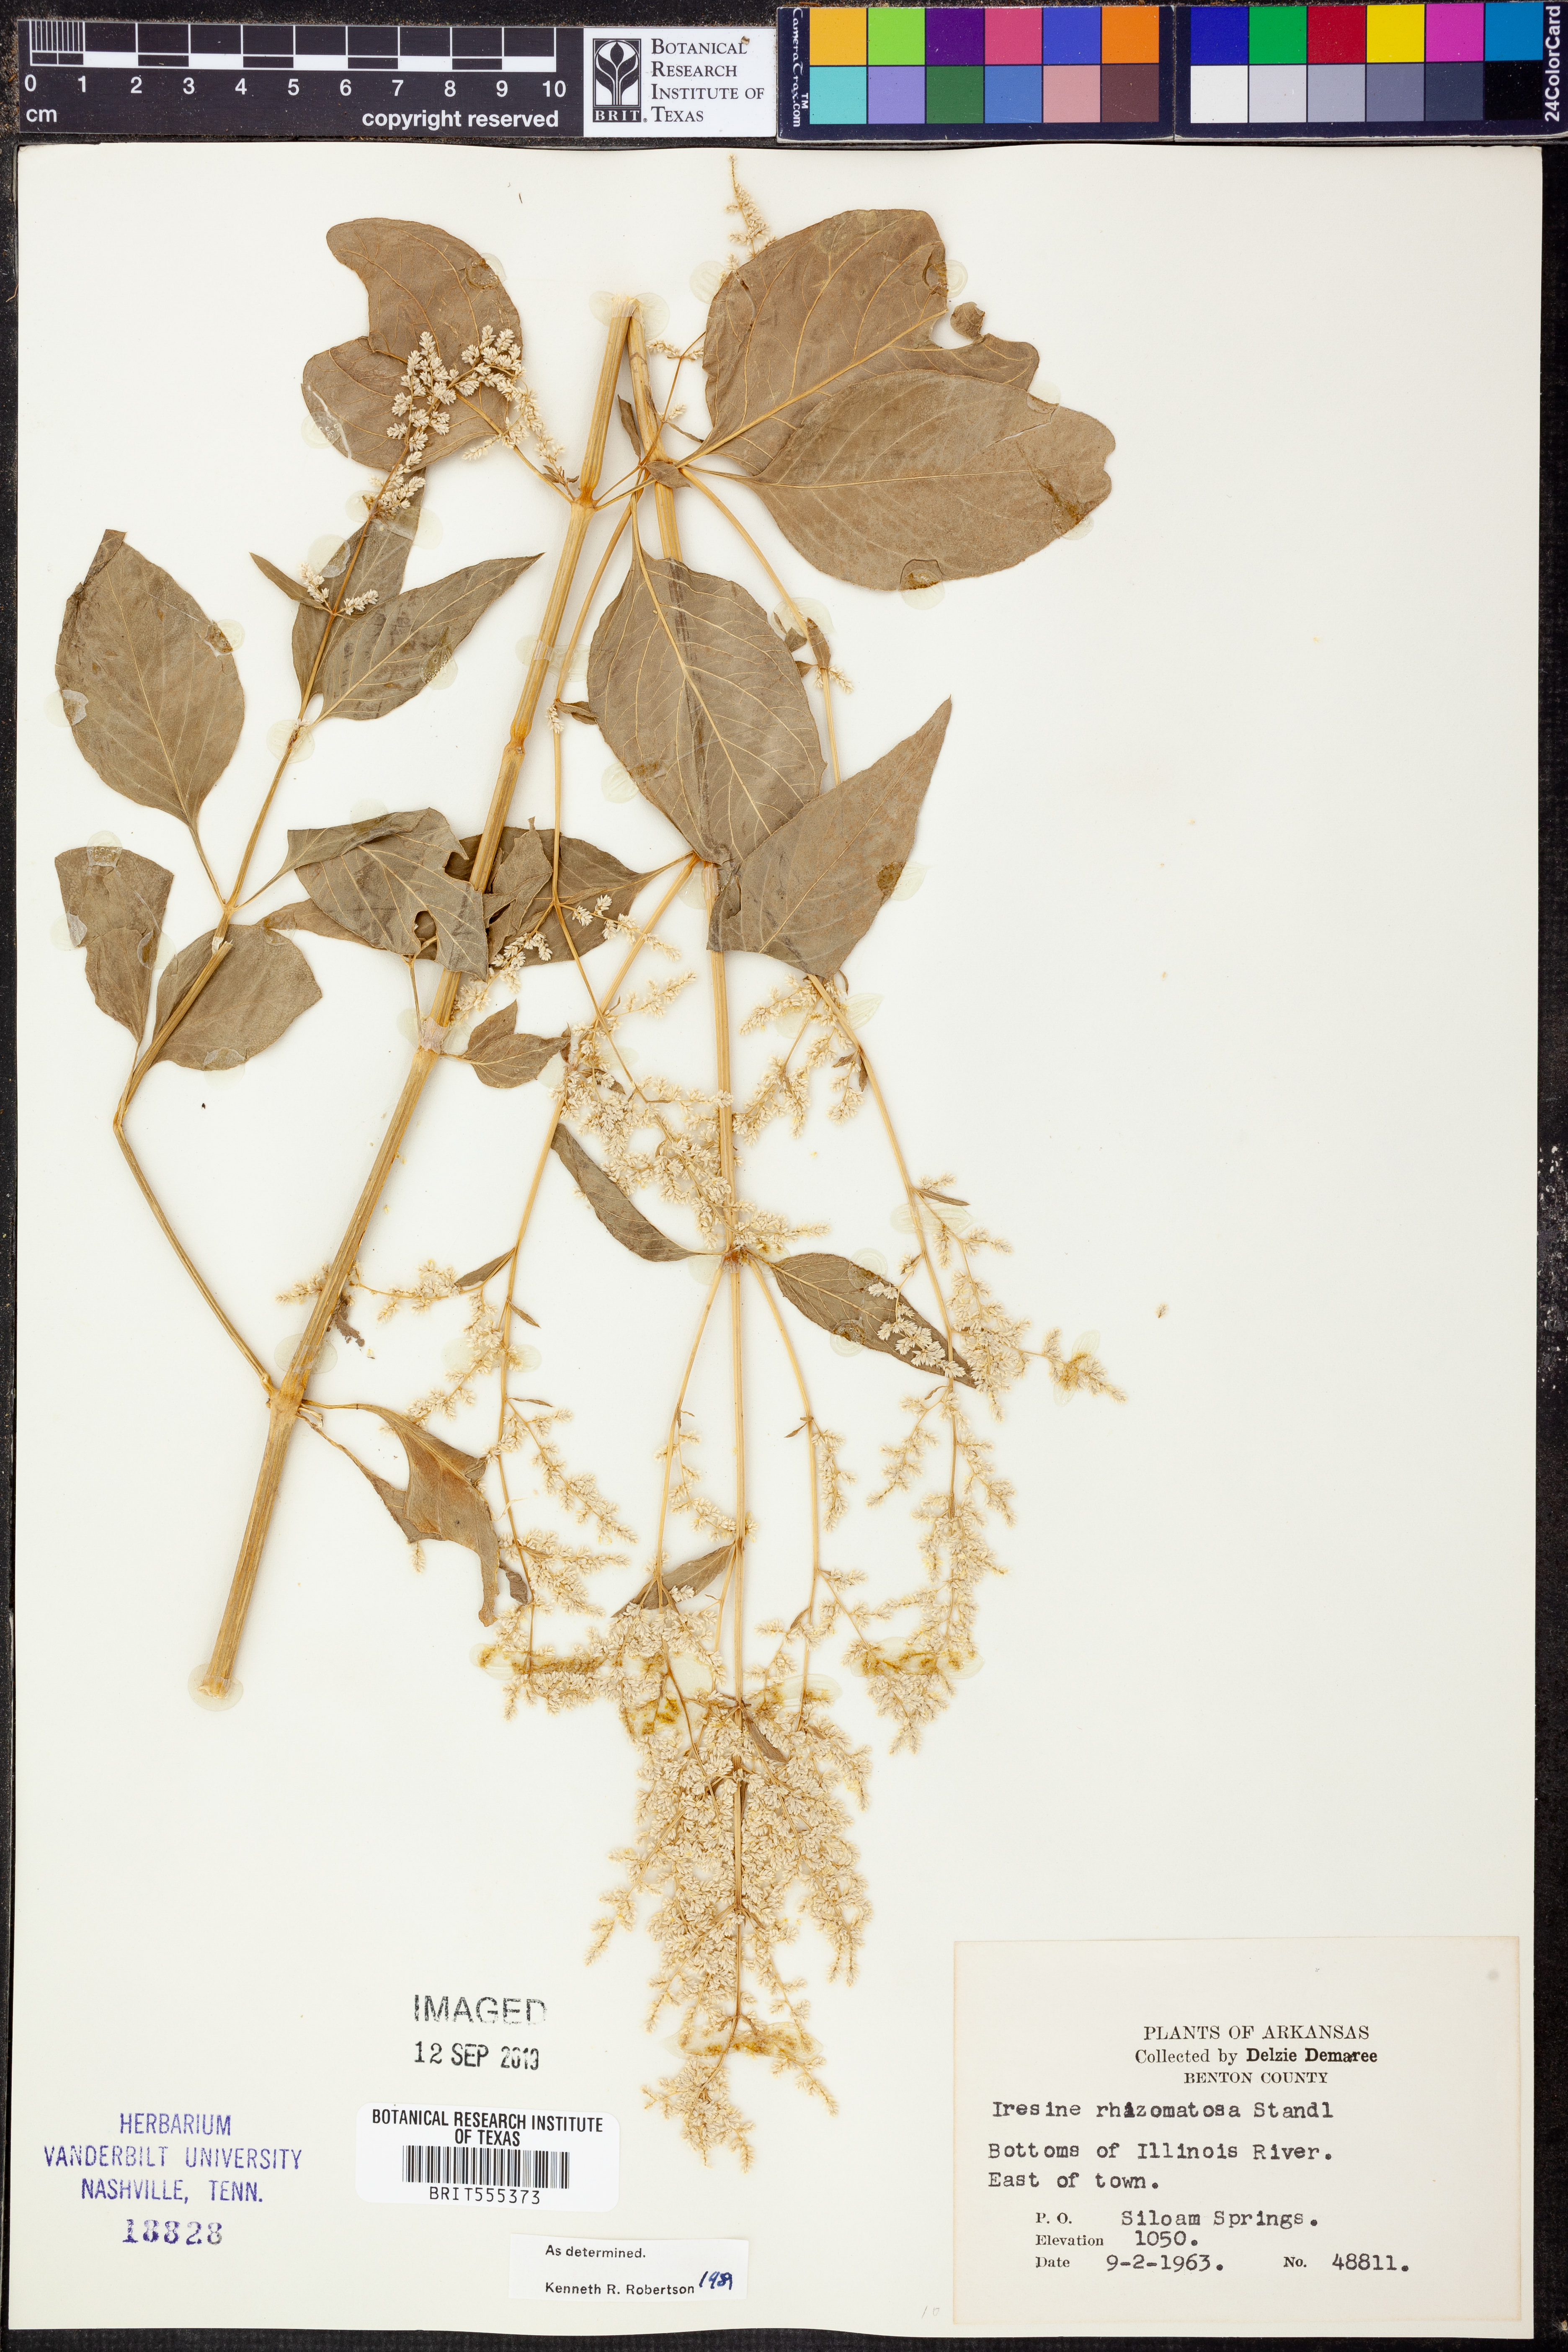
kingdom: Plantae
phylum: Tracheophyta
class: Magnoliopsida
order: Caryophyllales
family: Amaranthaceae
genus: Iresine
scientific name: Iresine rhizomatosa
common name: Juda's-bush
